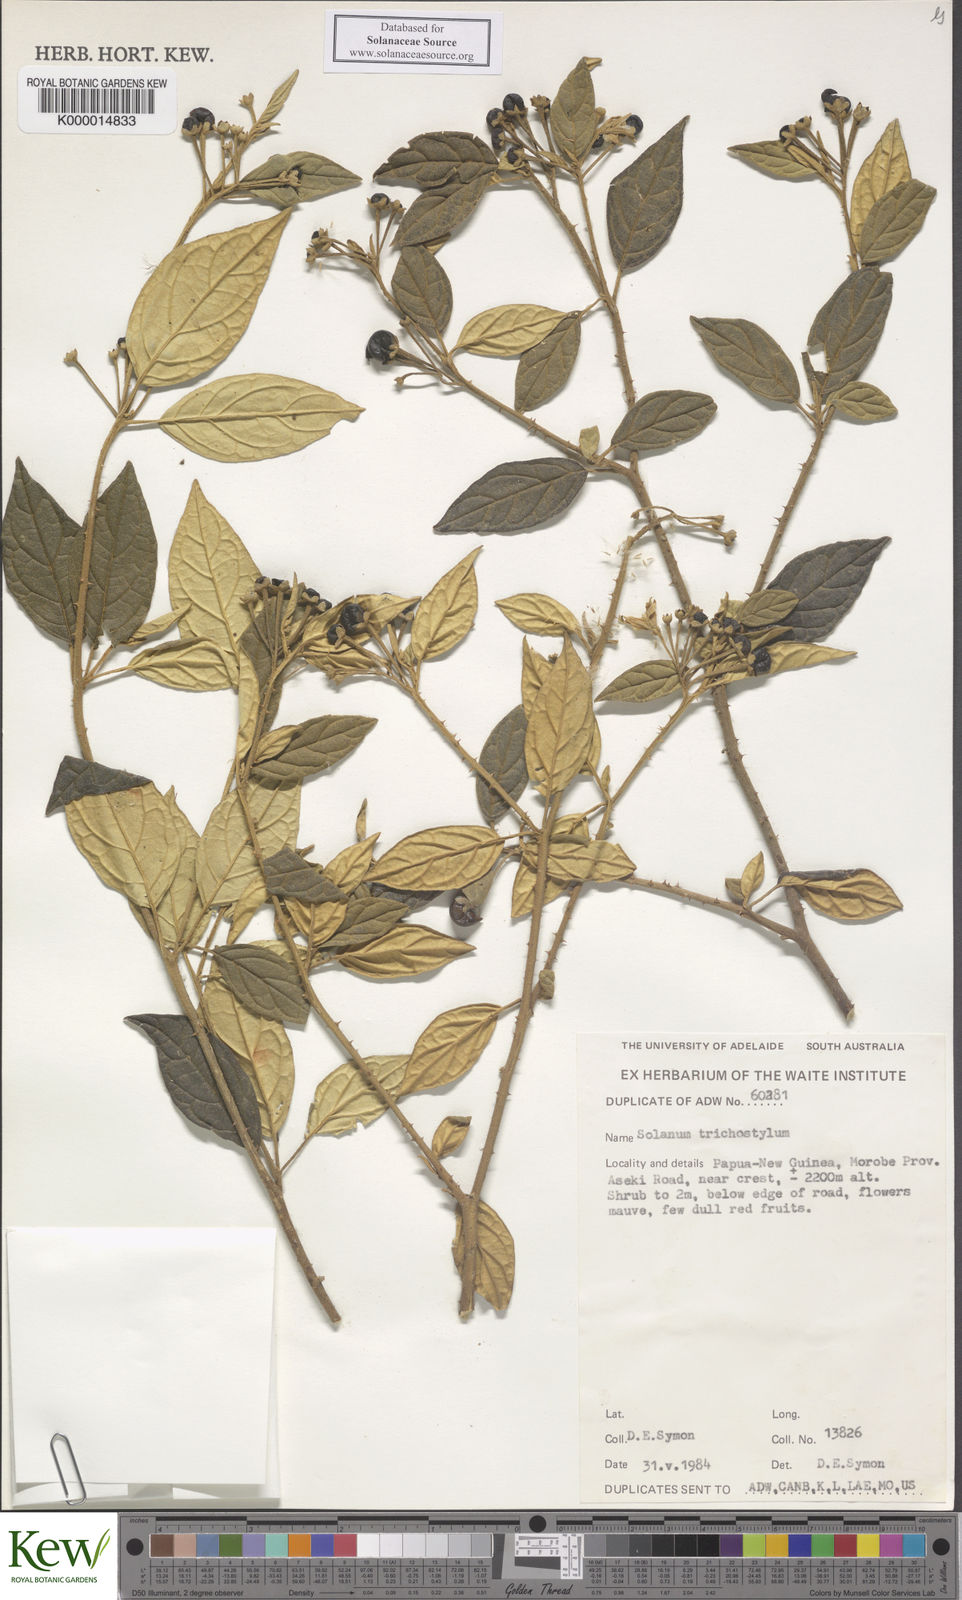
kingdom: Plantae
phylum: Tracheophyta
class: Magnoliopsida
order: Solanales
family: Solanaceae
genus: Solanum
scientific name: Solanum trichostylum
